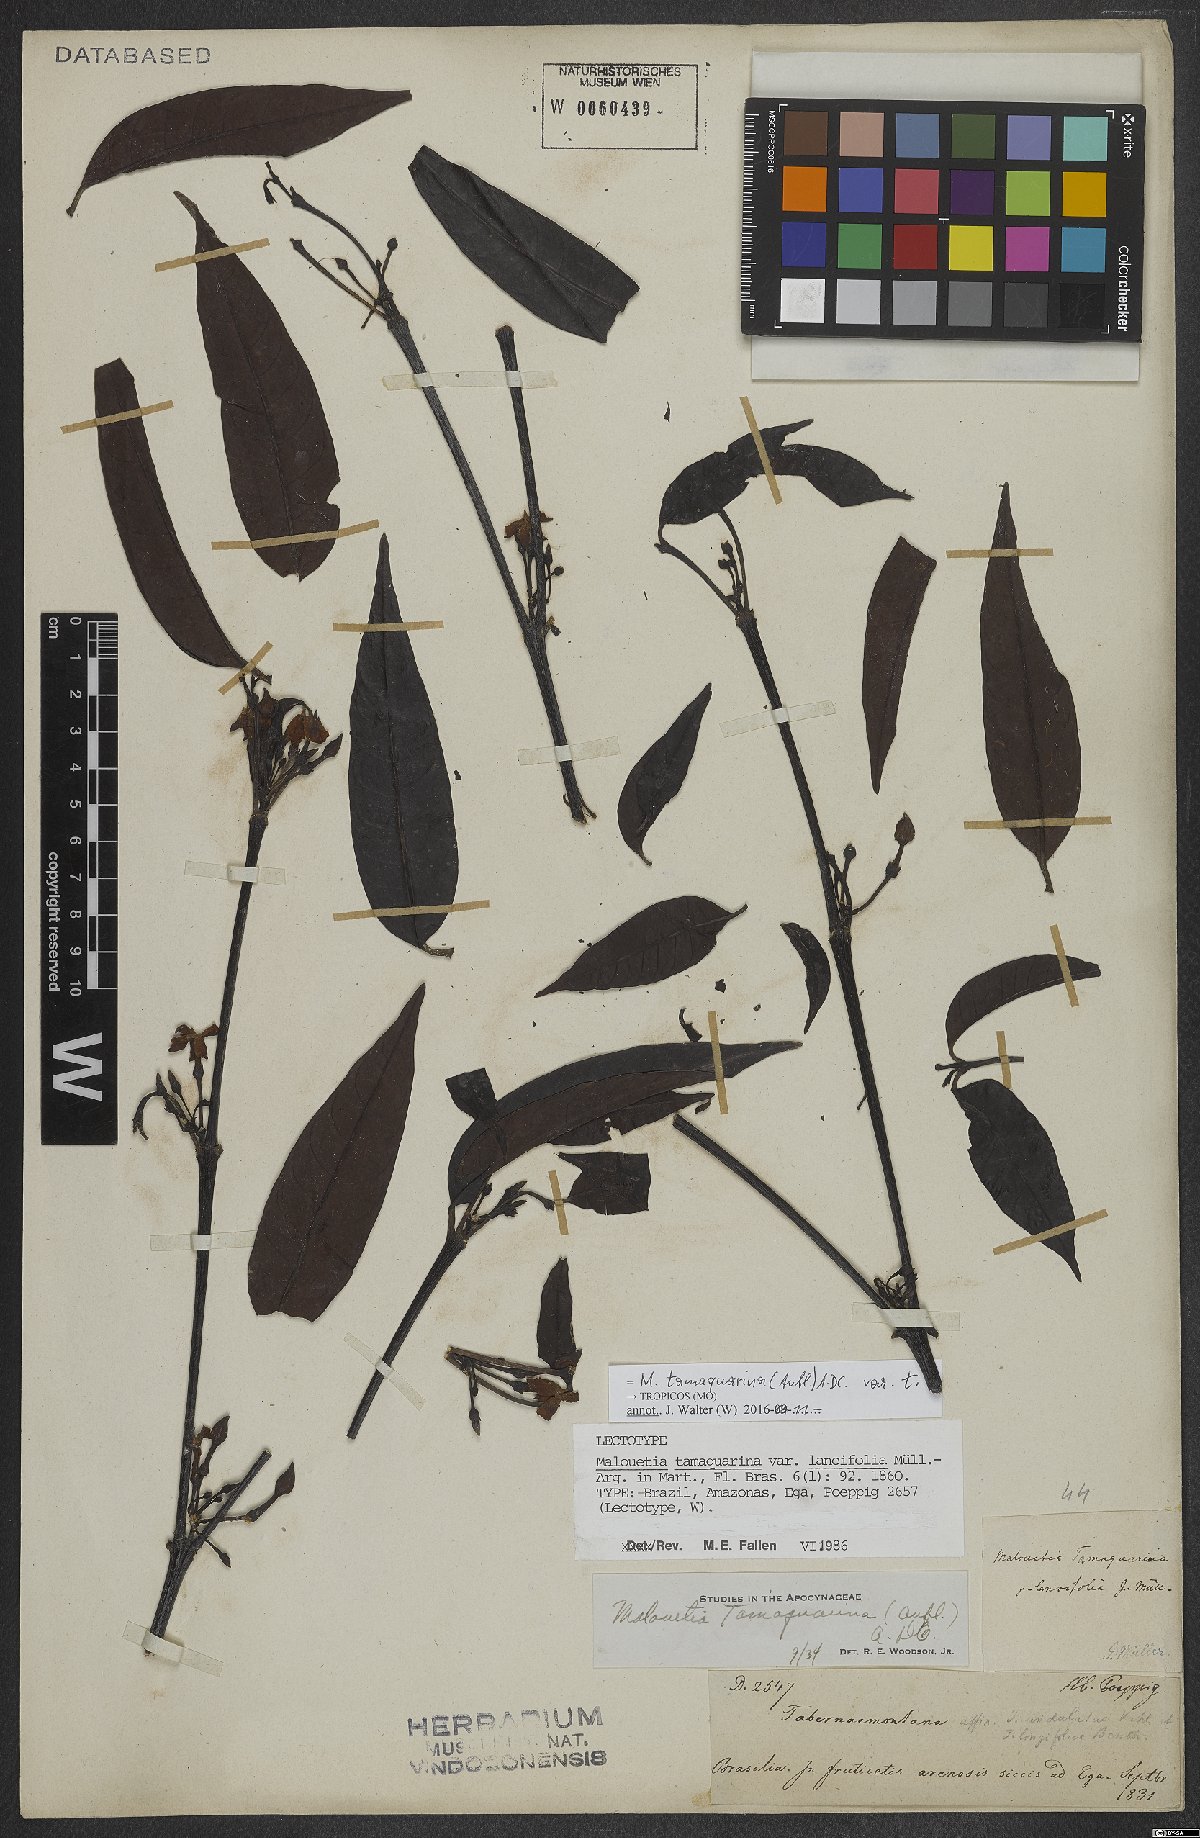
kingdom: Plantae
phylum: Tracheophyta
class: Magnoliopsida
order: Gentianales
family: Apocynaceae
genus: Malouetia
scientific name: Malouetia tamaquarina
